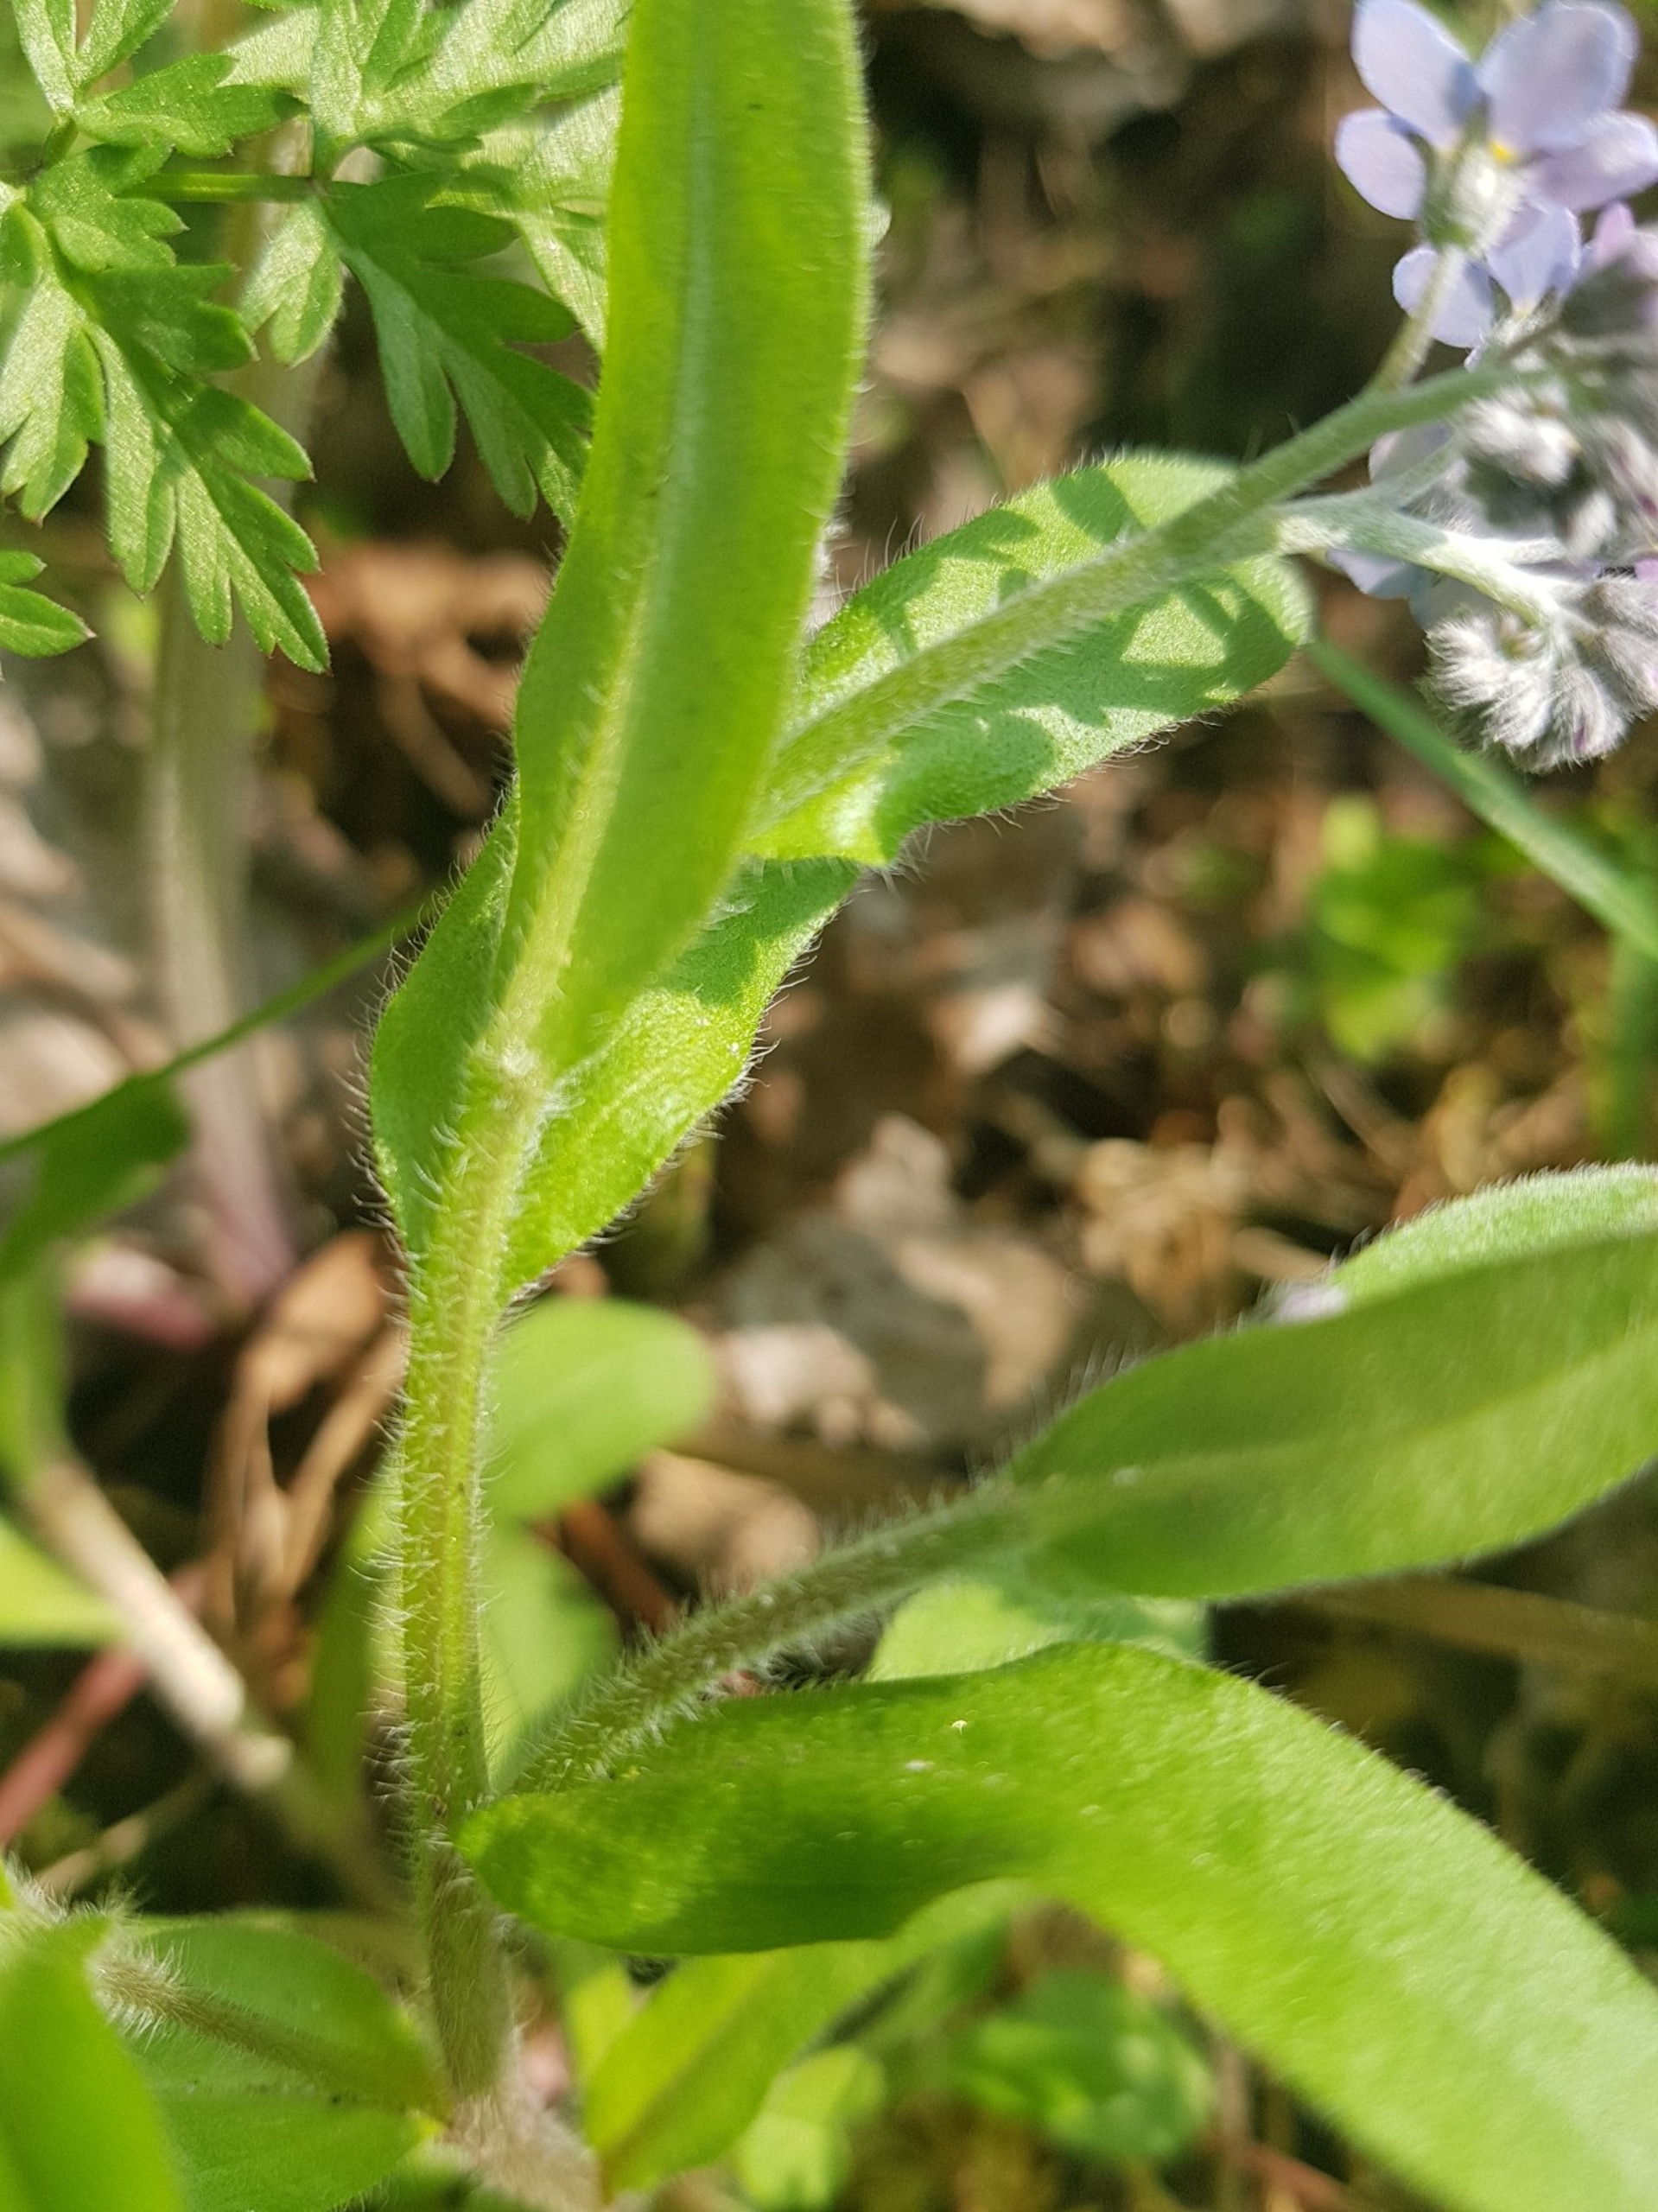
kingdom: Plantae
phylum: Tracheophyta
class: Magnoliopsida
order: Boraginales
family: Boraginaceae
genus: Myosotis
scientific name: Myosotis sylvatica
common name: Skov-forglemmigej
